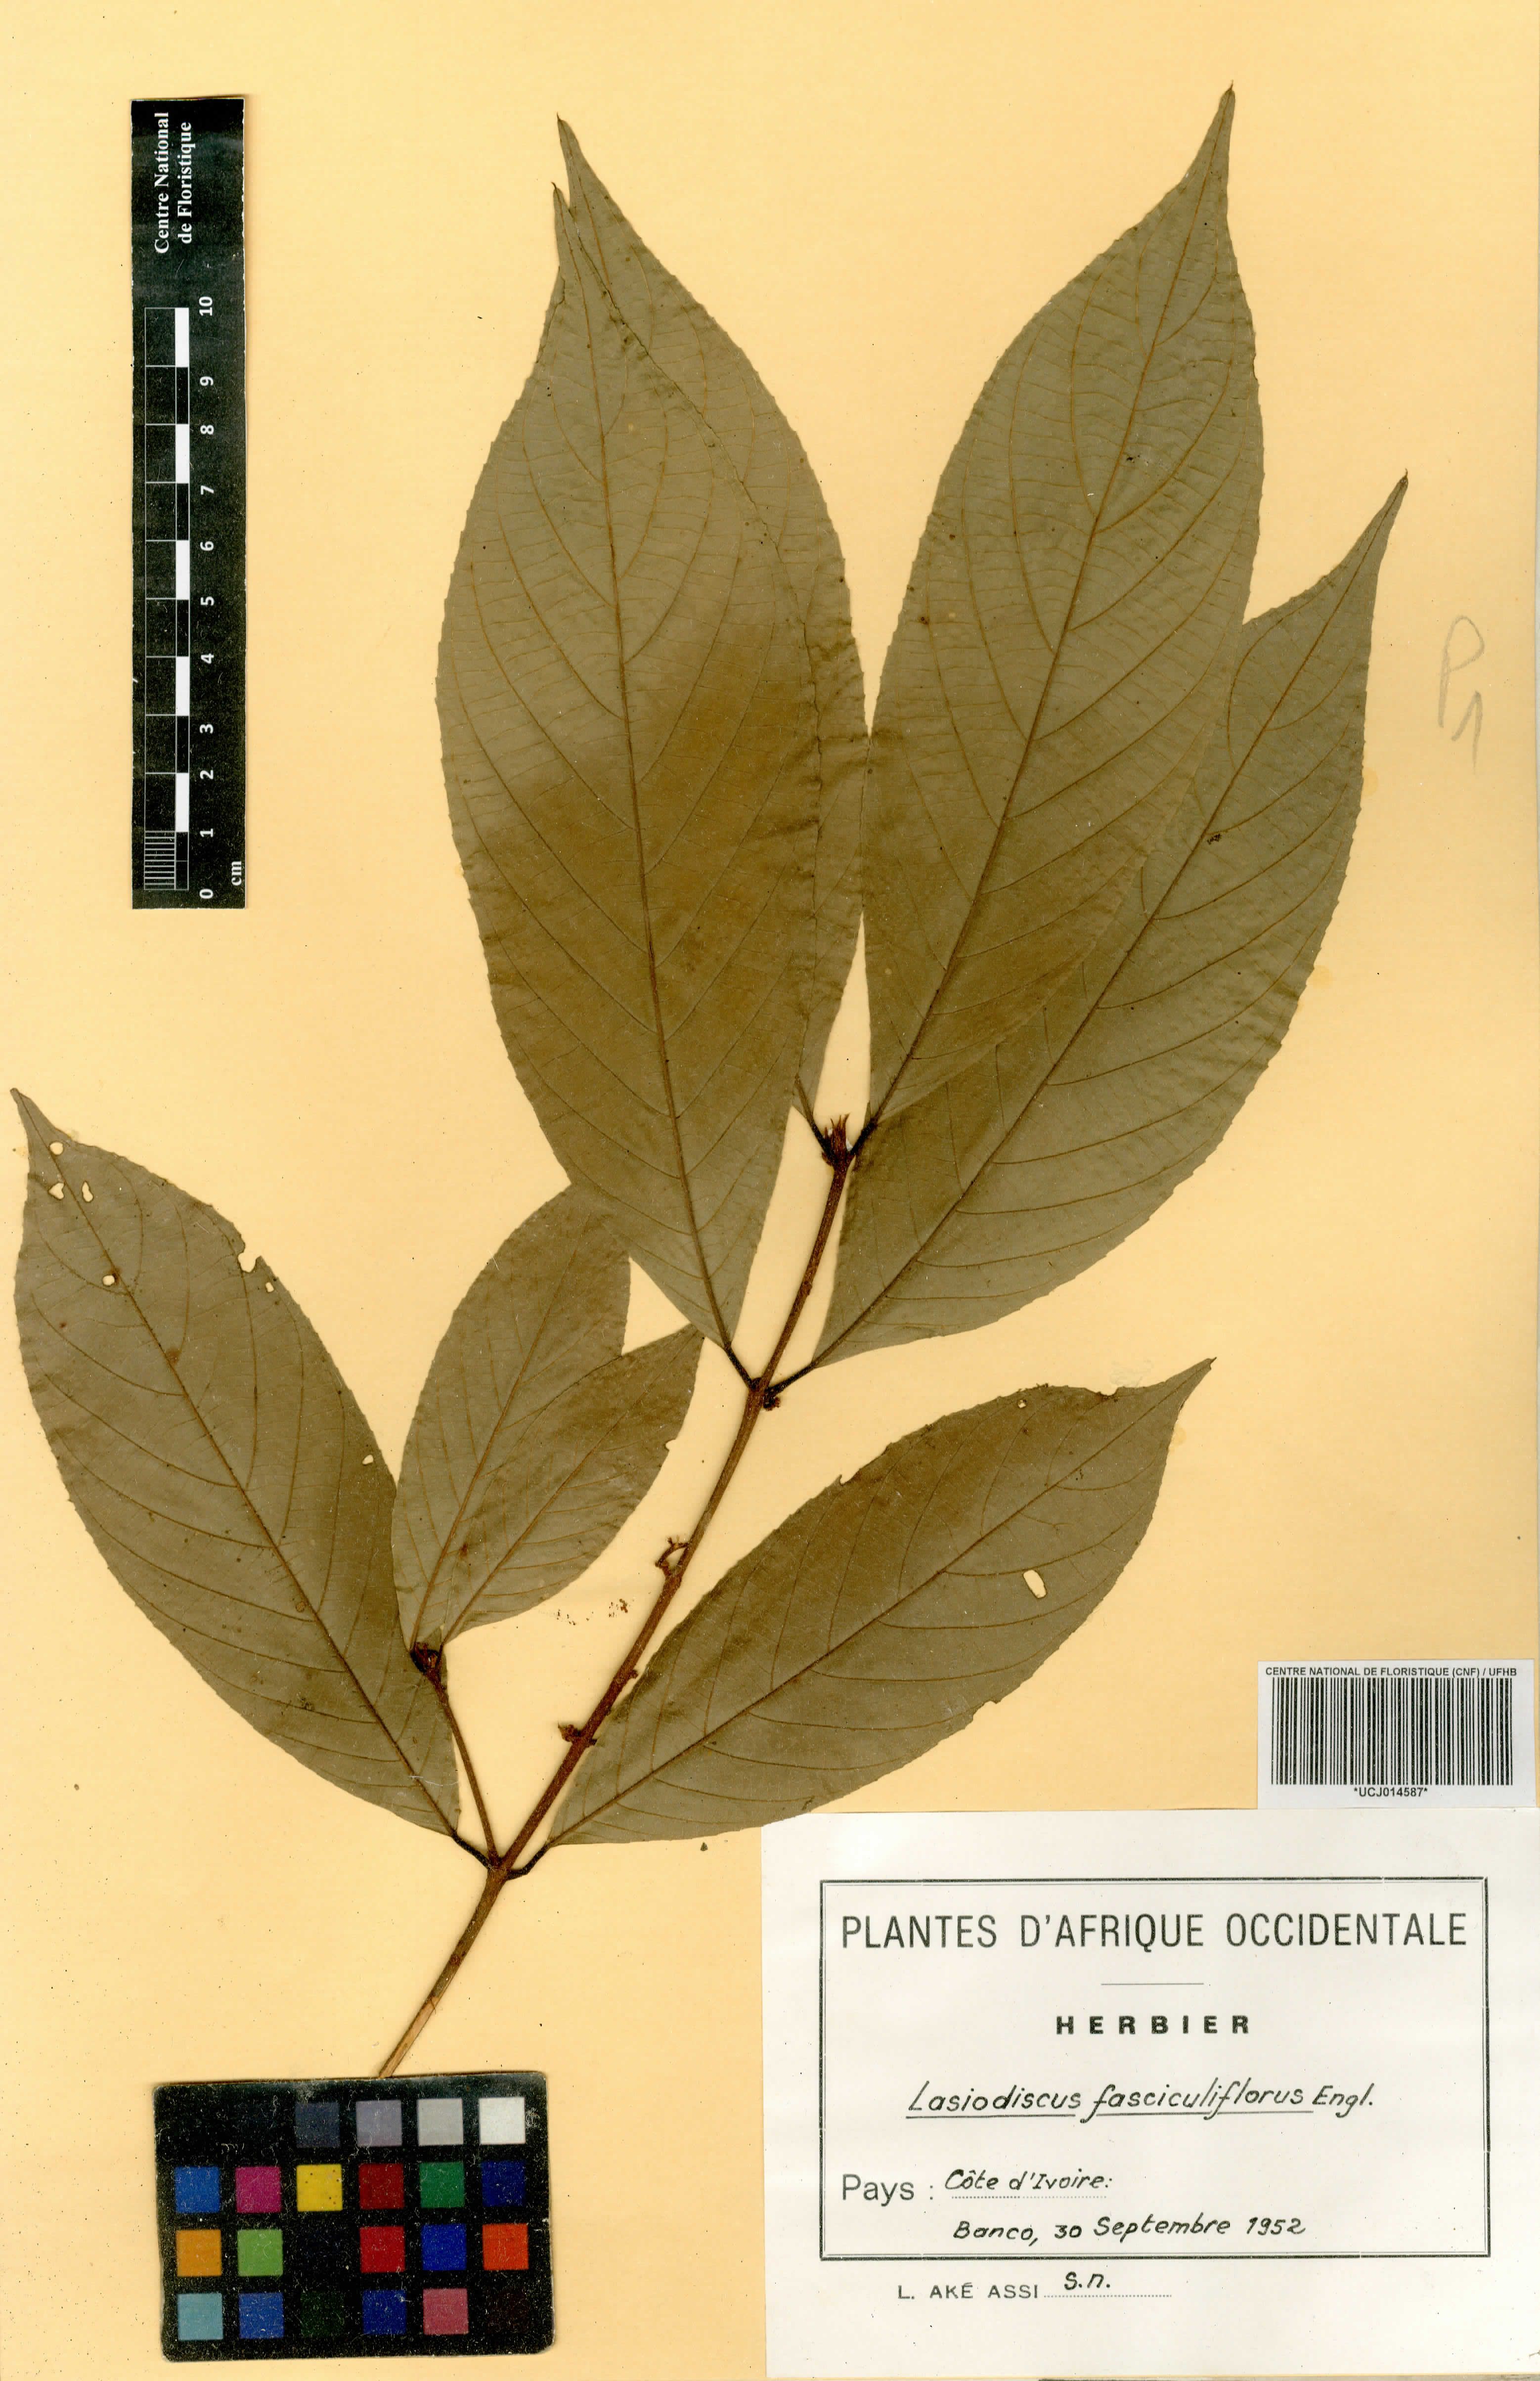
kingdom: Plantae
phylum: Tracheophyta
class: Magnoliopsida
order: Rosales
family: Rhamnaceae
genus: Lasiodiscus
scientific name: Lasiodiscus fasciculiflorus
